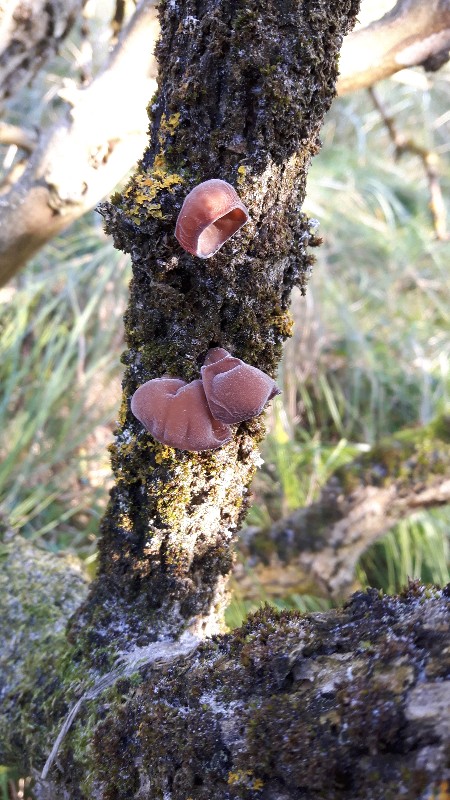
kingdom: Fungi
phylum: Basidiomycota
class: Agaricomycetes
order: Auriculariales
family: Auriculariaceae
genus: Auricularia
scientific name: Auricularia auricula-judae
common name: almindelig judasøre
